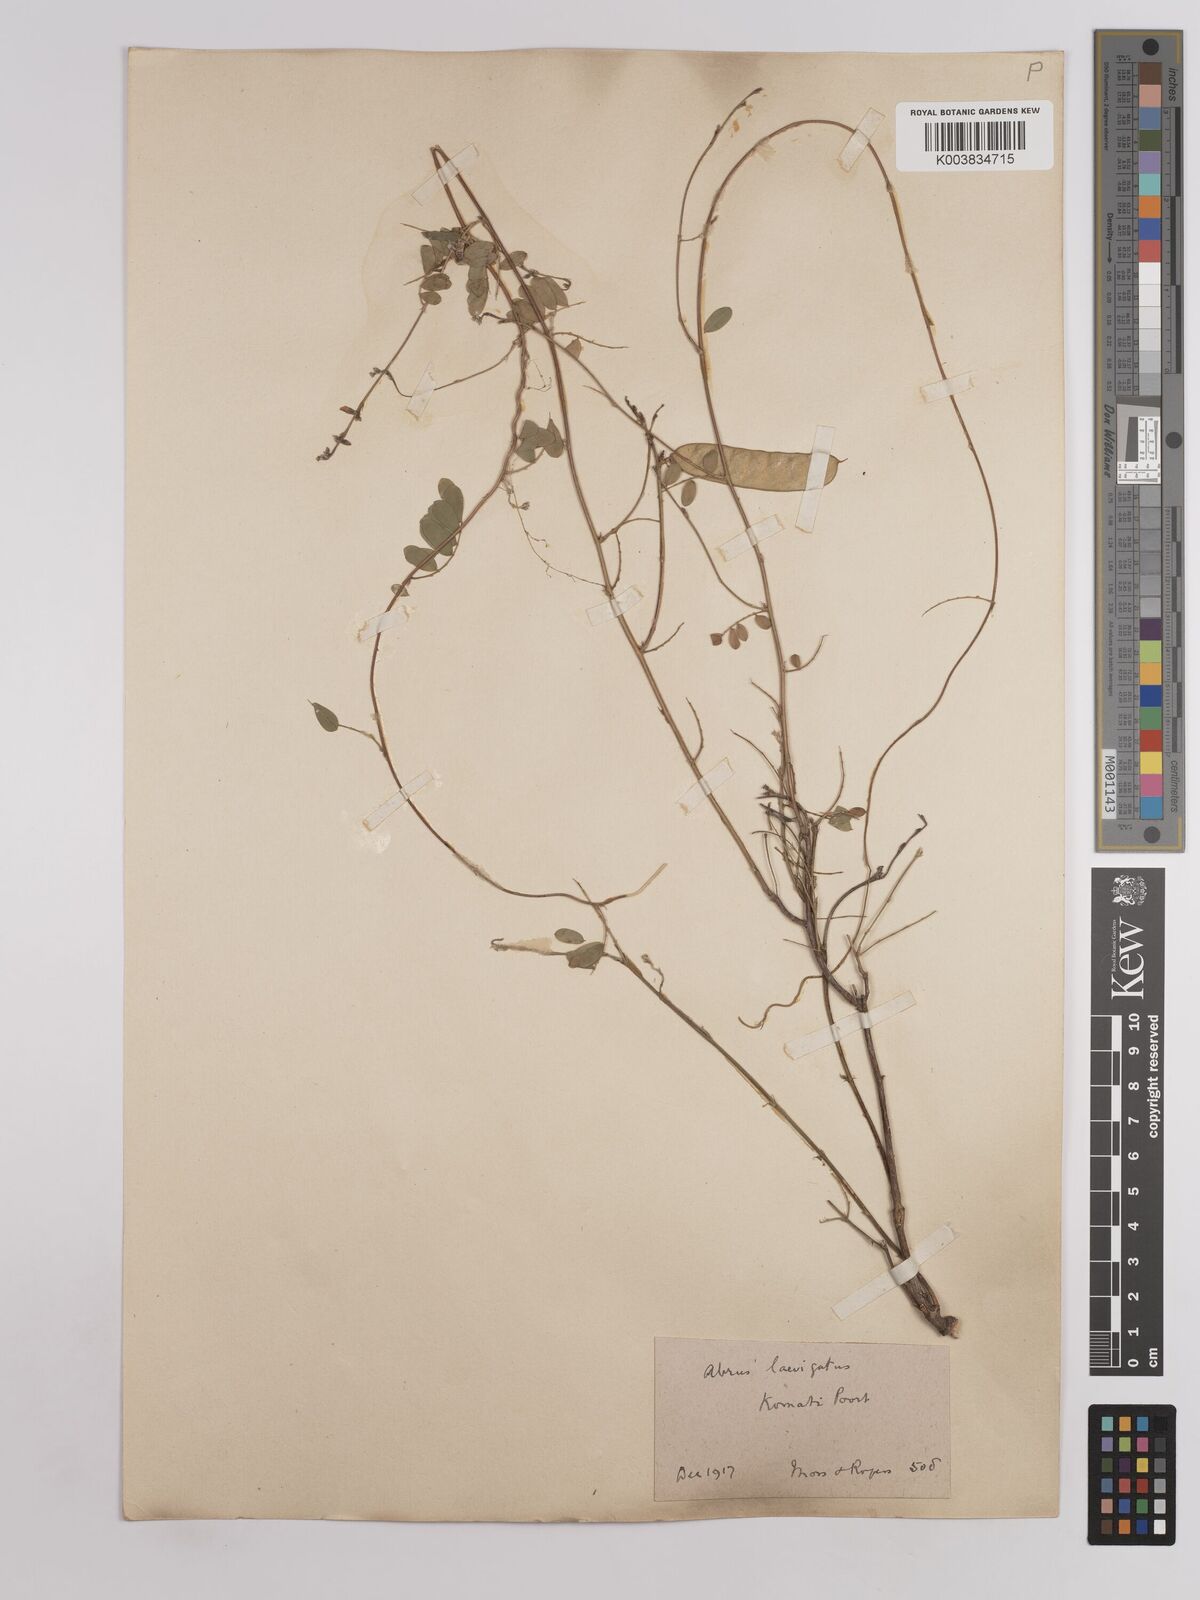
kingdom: Plantae
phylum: Tracheophyta
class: Magnoliopsida
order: Fabales
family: Fabaceae
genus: Abrus
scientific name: Abrus laevigatus
